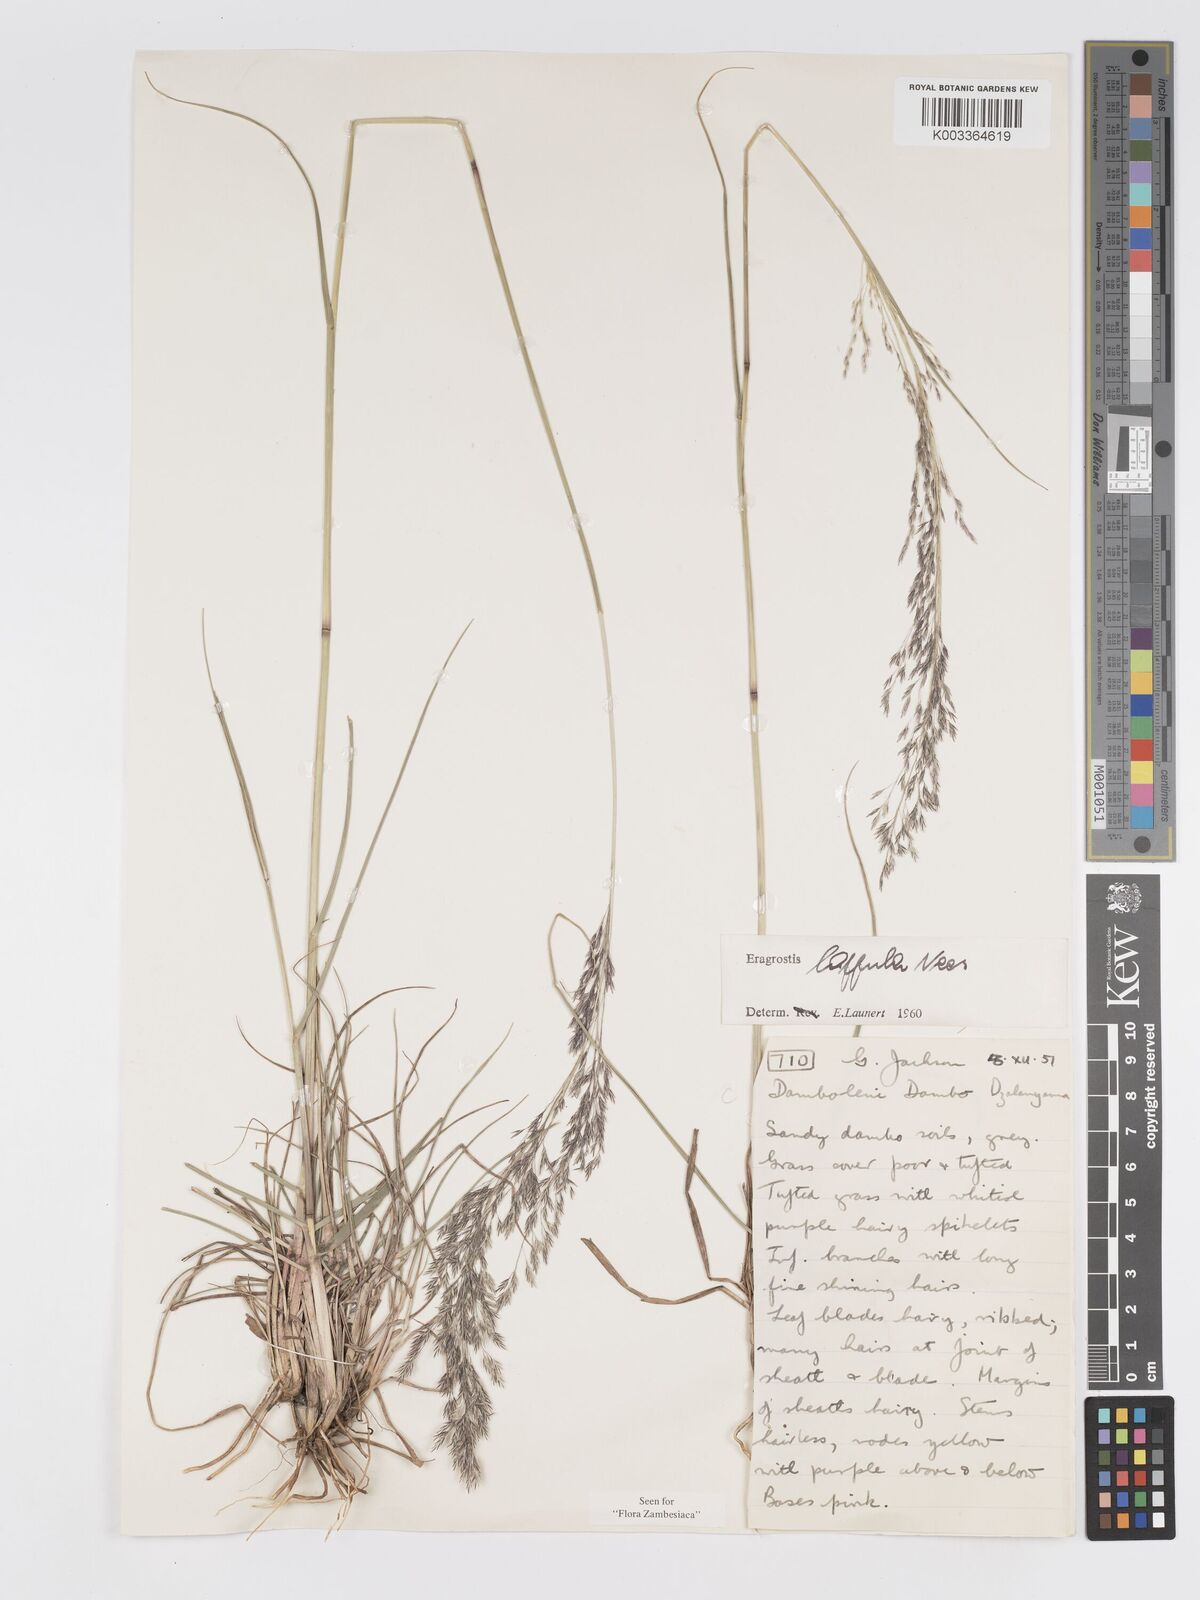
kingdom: Plantae
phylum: Tracheophyta
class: Liliopsida
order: Poales
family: Poaceae
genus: Eragrostis
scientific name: Eragrostis lappula
